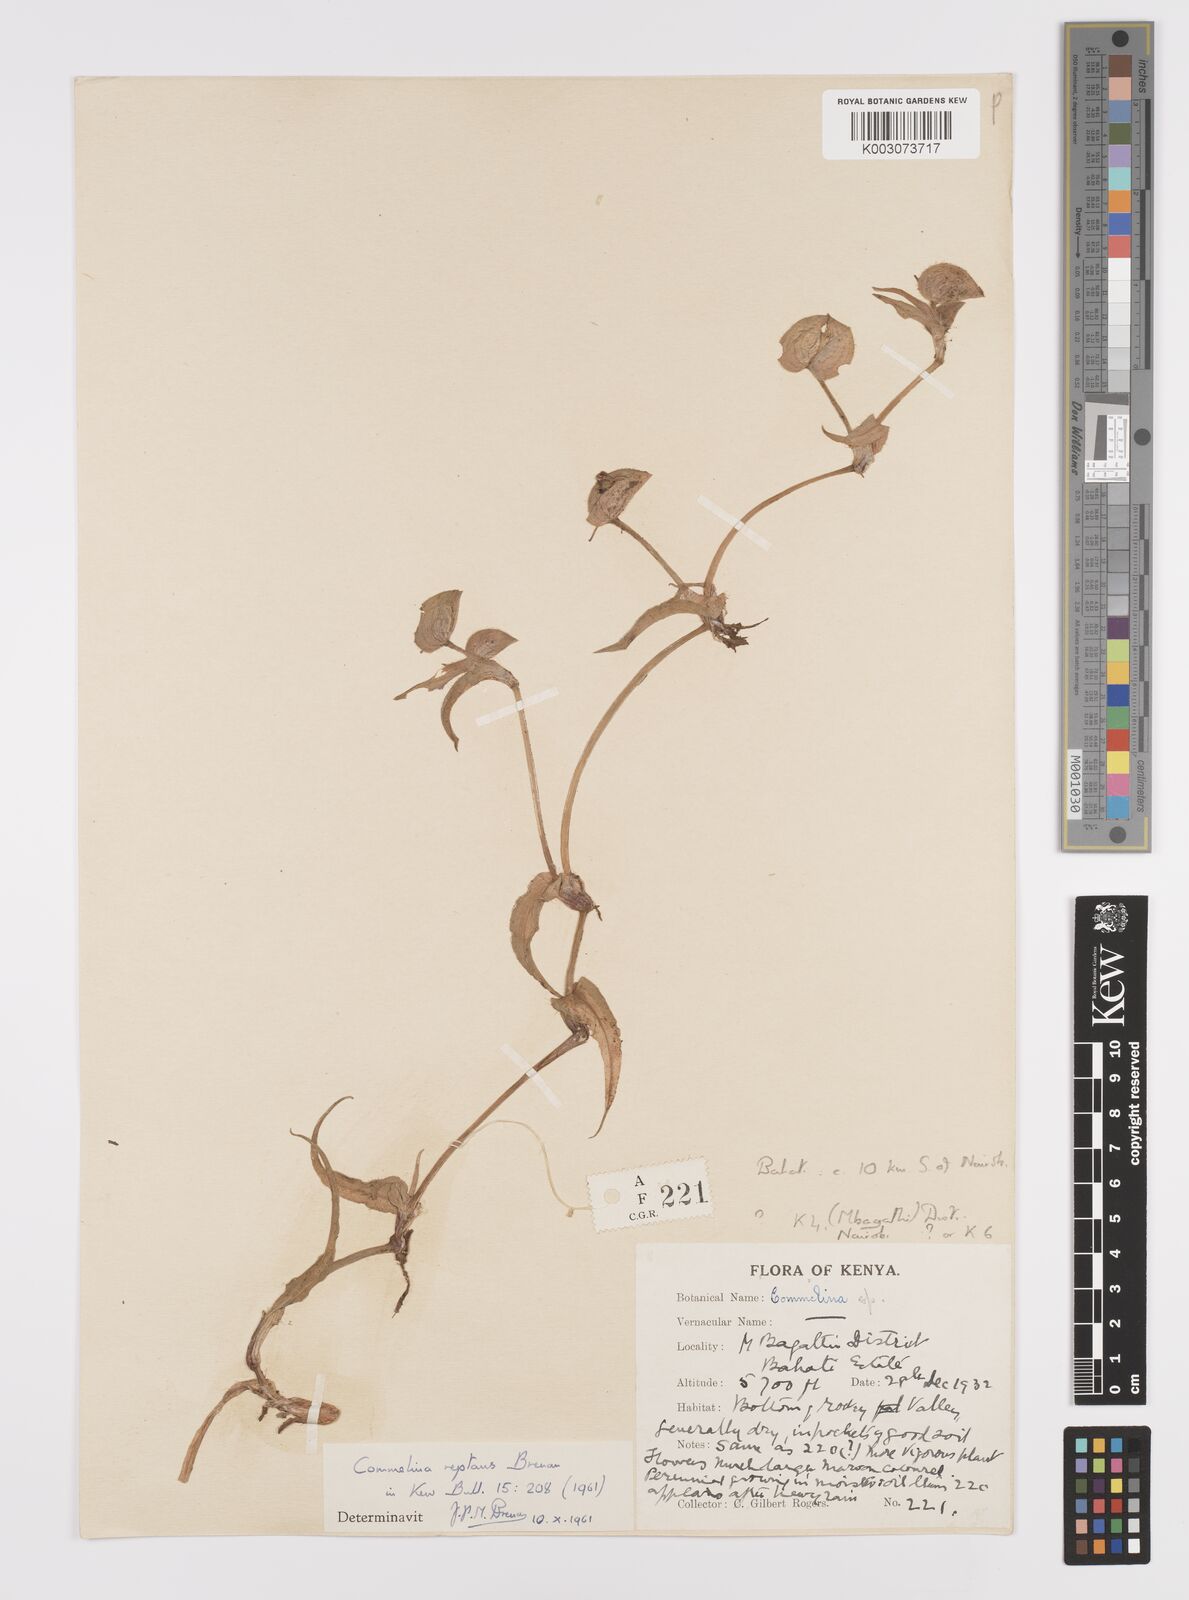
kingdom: Plantae
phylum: Tracheophyta
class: Liliopsida
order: Commelinales
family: Commelinaceae
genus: Commelina
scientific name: Commelina reptans
